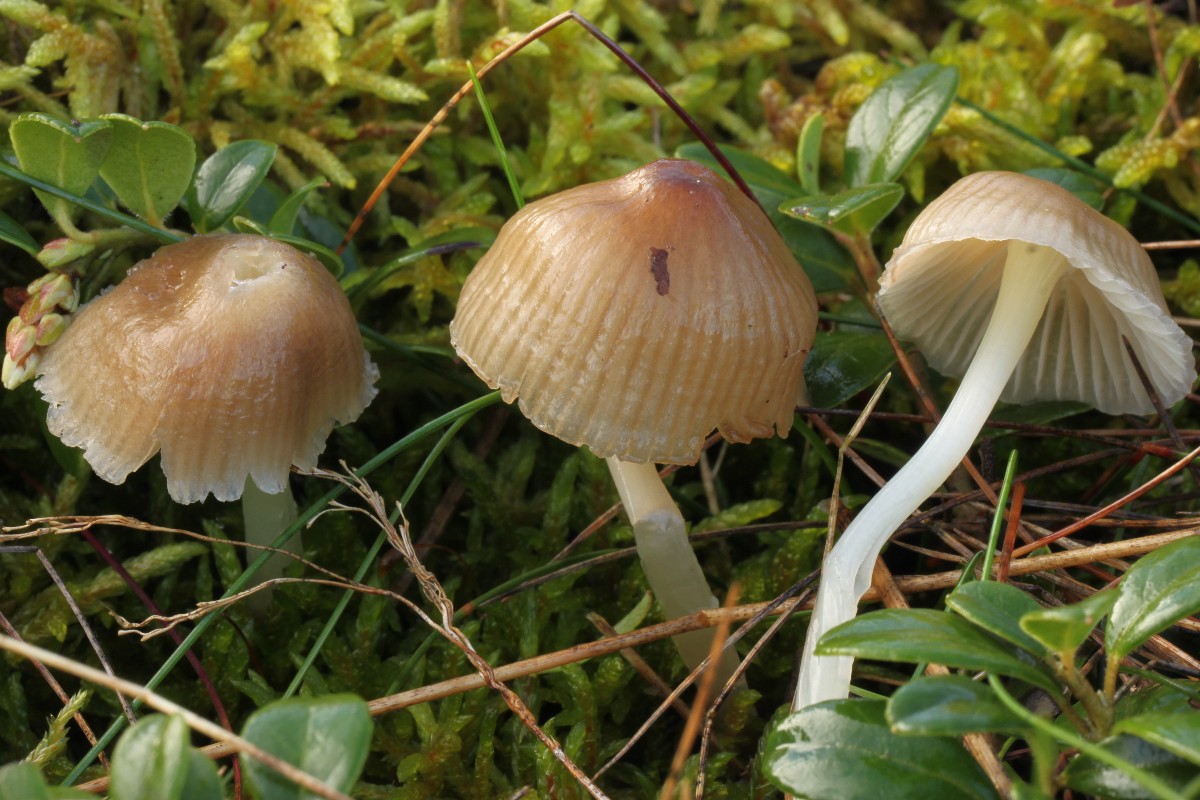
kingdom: Fungi
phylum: Basidiomycota
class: Agaricomycetes
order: Agaricales
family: Mycenaceae
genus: Mycena
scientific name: Mycena epipterygia
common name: Yellowleg bonnet
